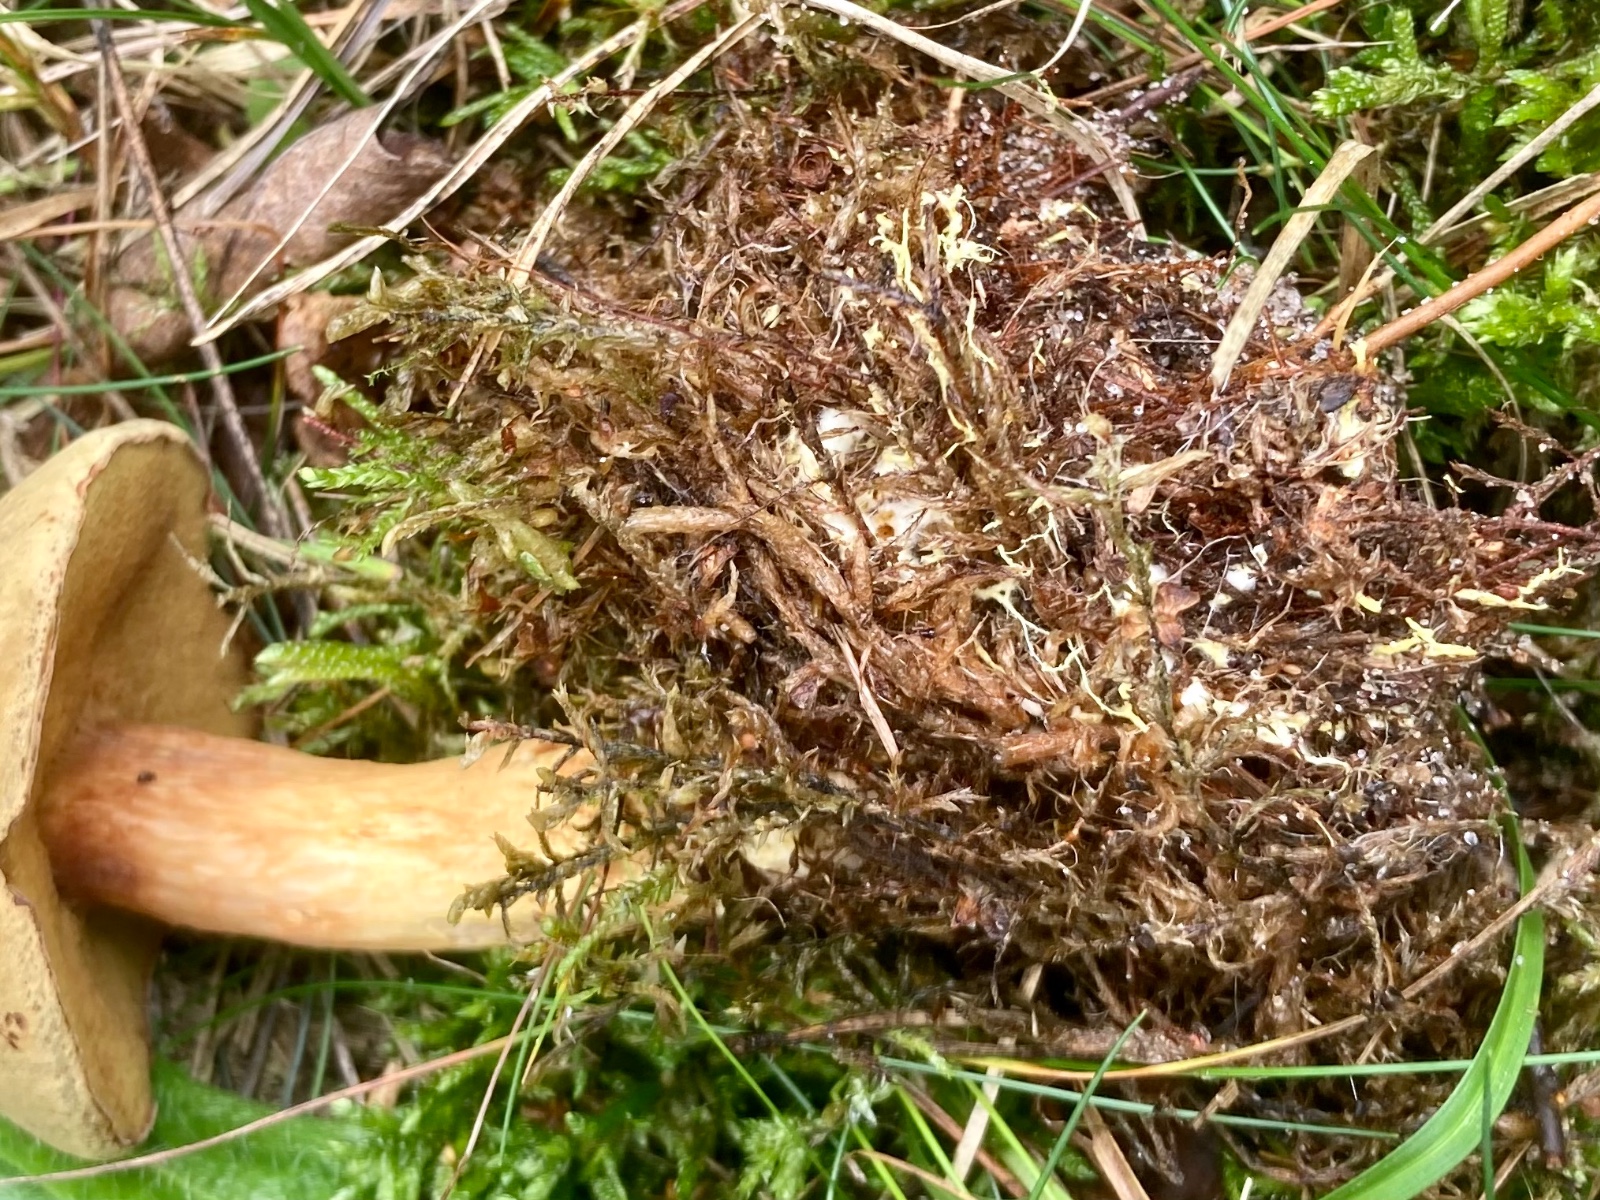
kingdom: Fungi
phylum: Basidiomycota
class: Agaricomycetes
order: Boletales
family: Boletaceae
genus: Xerocomus
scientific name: Xerocomus ferrugineus
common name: vaskeskinds-rørhat
